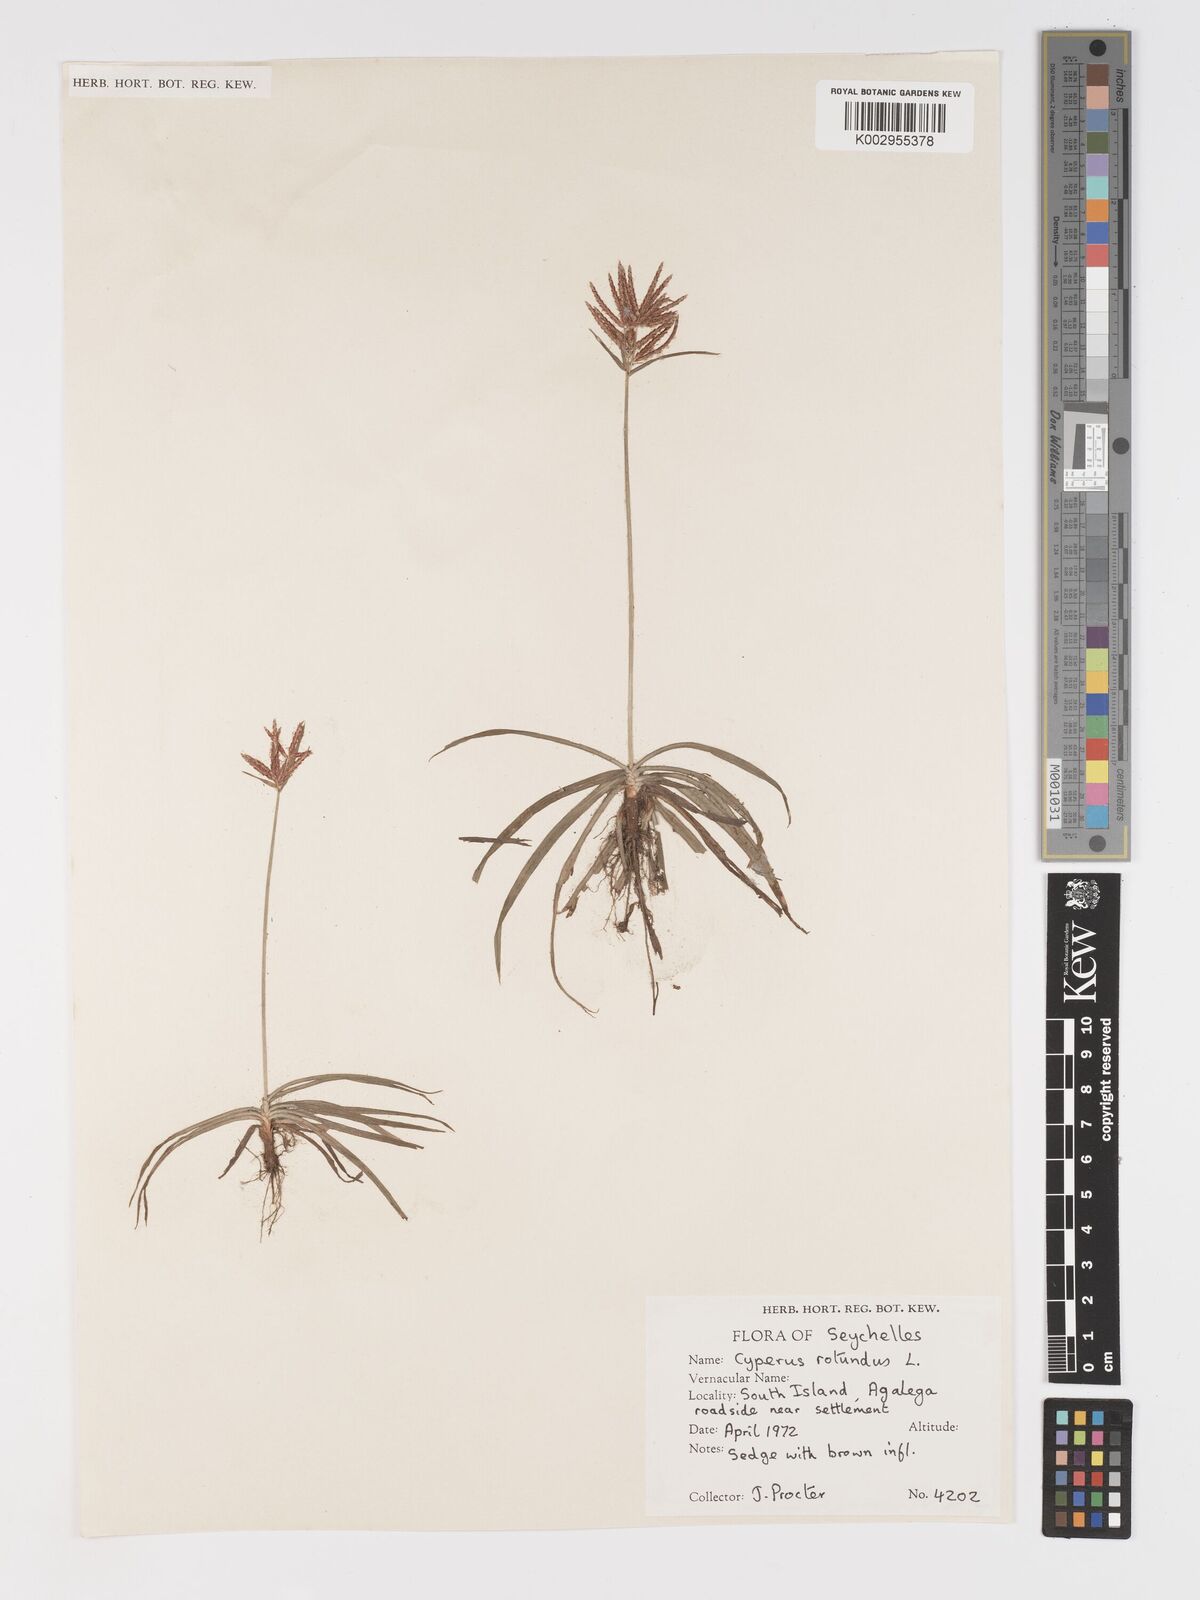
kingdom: Plantae
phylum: Tracheophyta
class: Liliopsida
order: Poales
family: Cyperaceae
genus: Cyperus
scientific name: Cyperus rotundus
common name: Nutgrass
